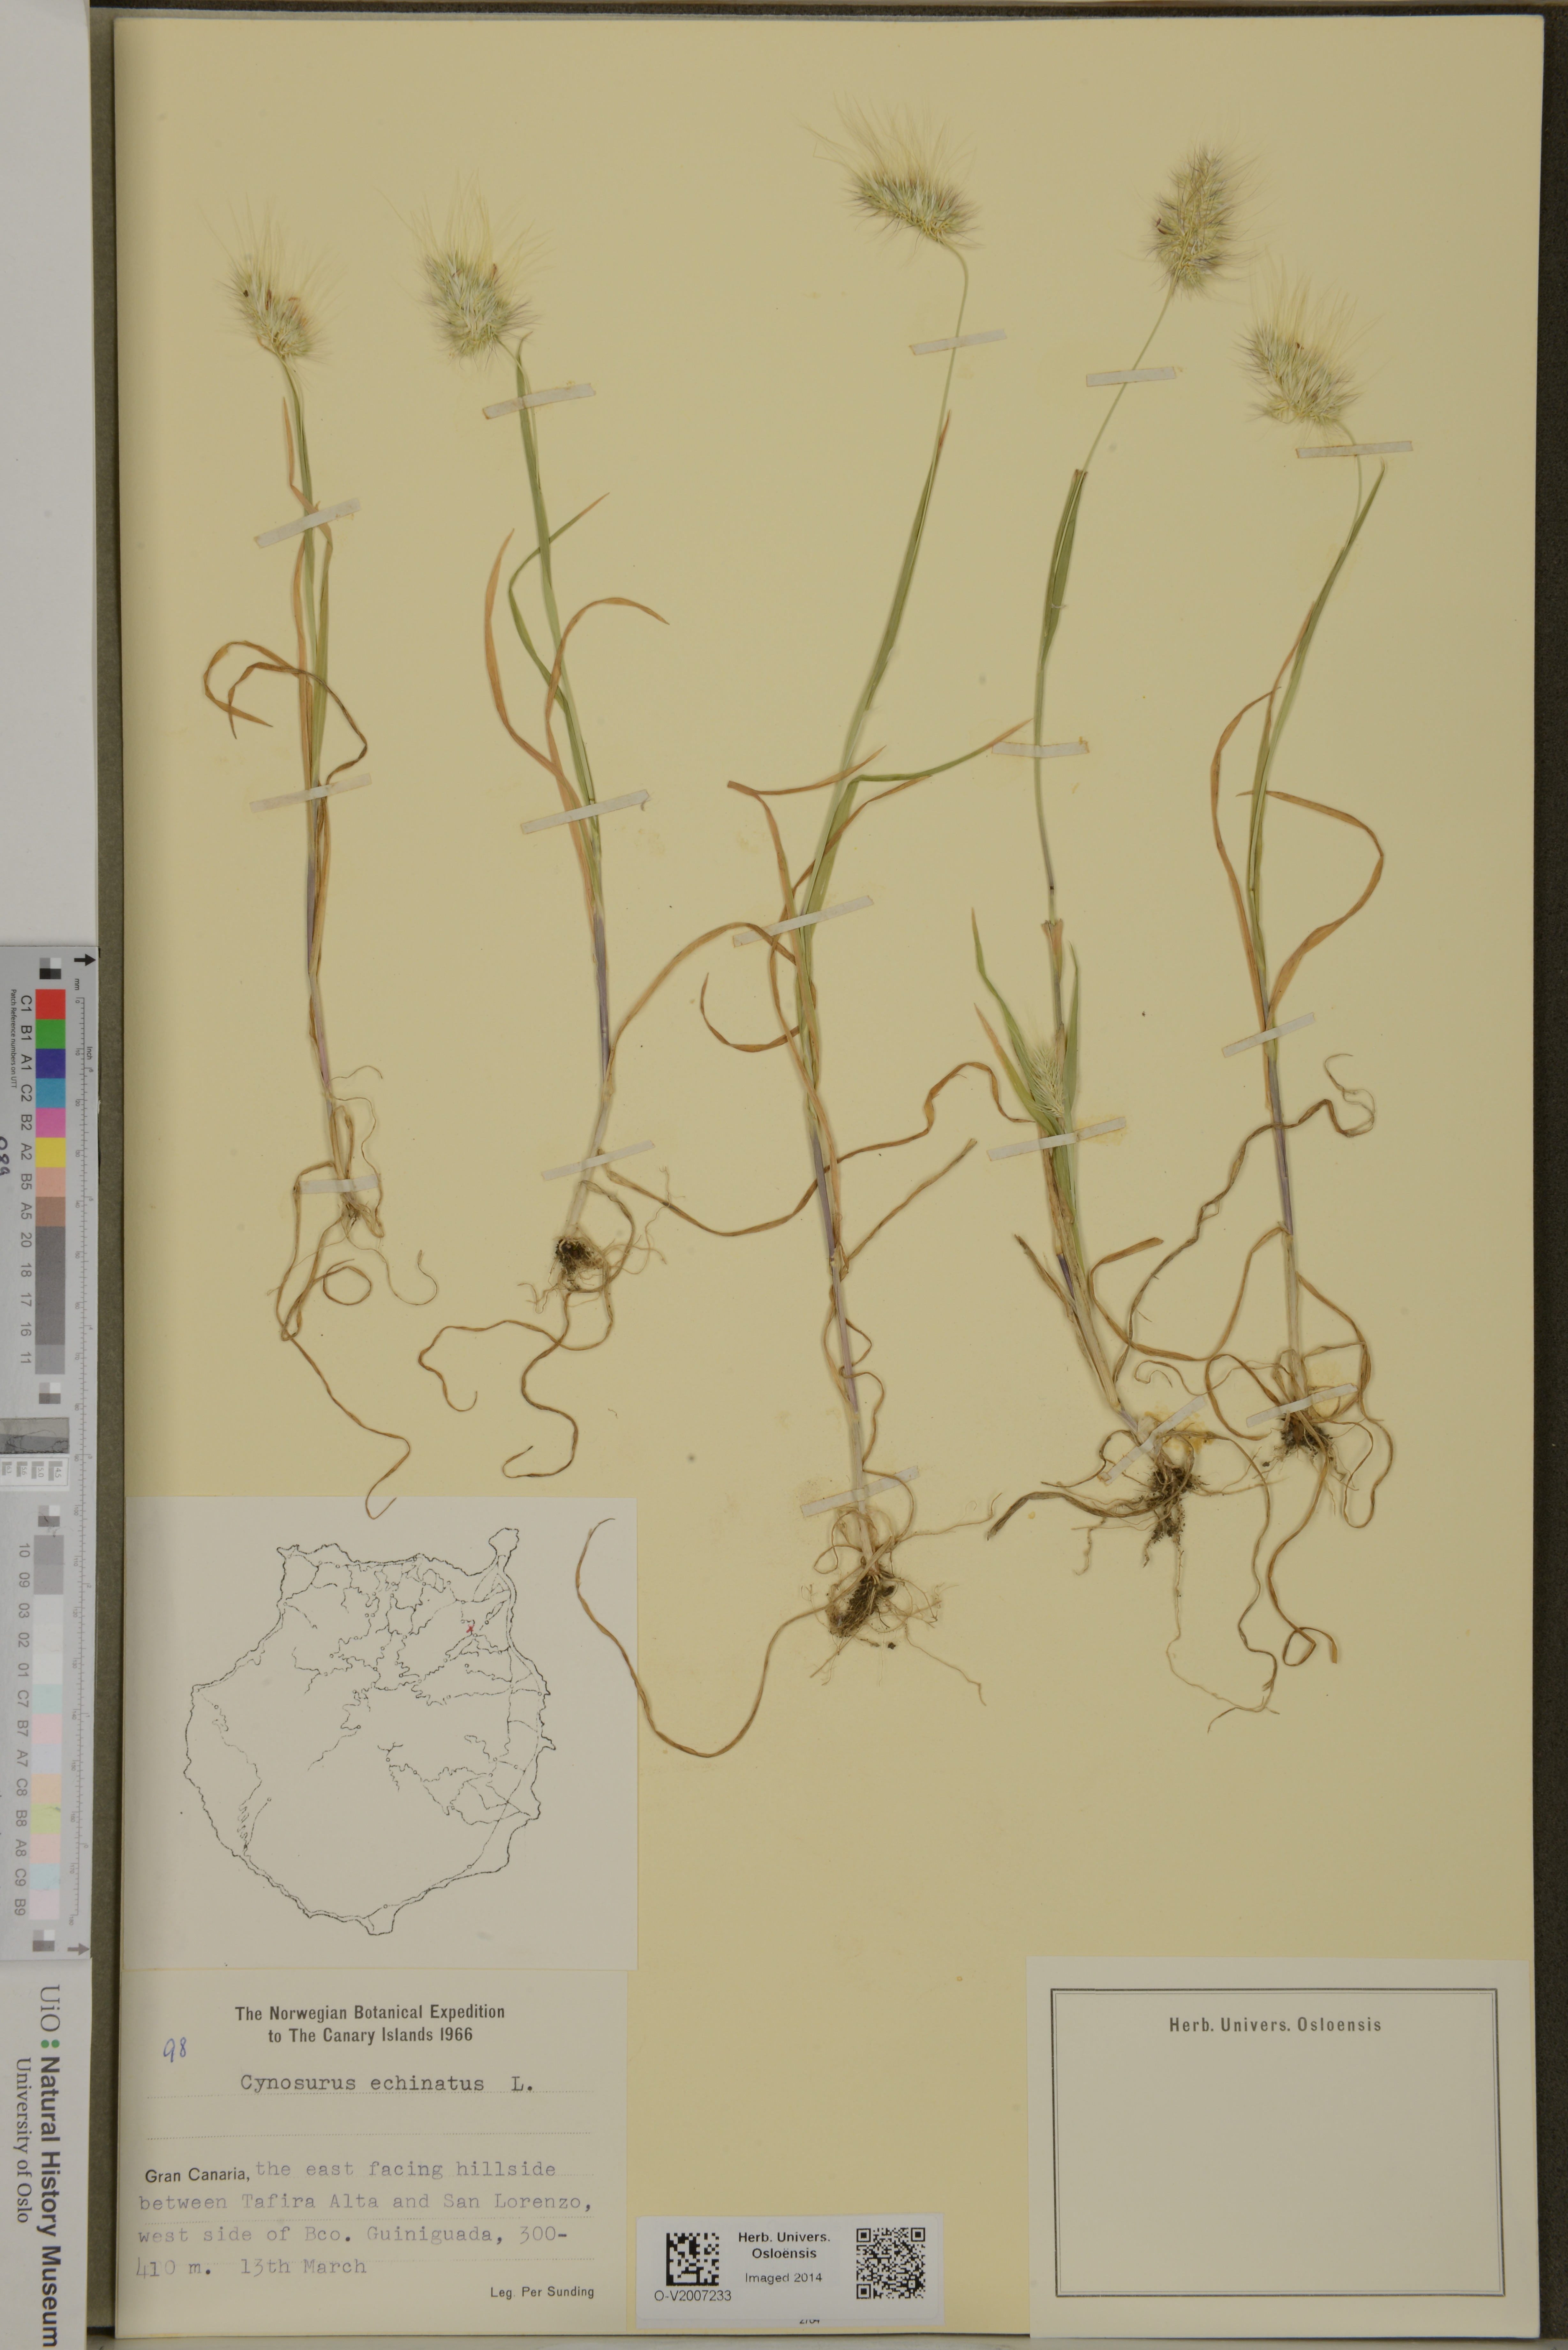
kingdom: Plantae
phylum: Tracheophyta
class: Liliopsida
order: Poales
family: Poaceae
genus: Cynosurus
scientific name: Cynosurus echinatus
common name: Rough dog's-tail
